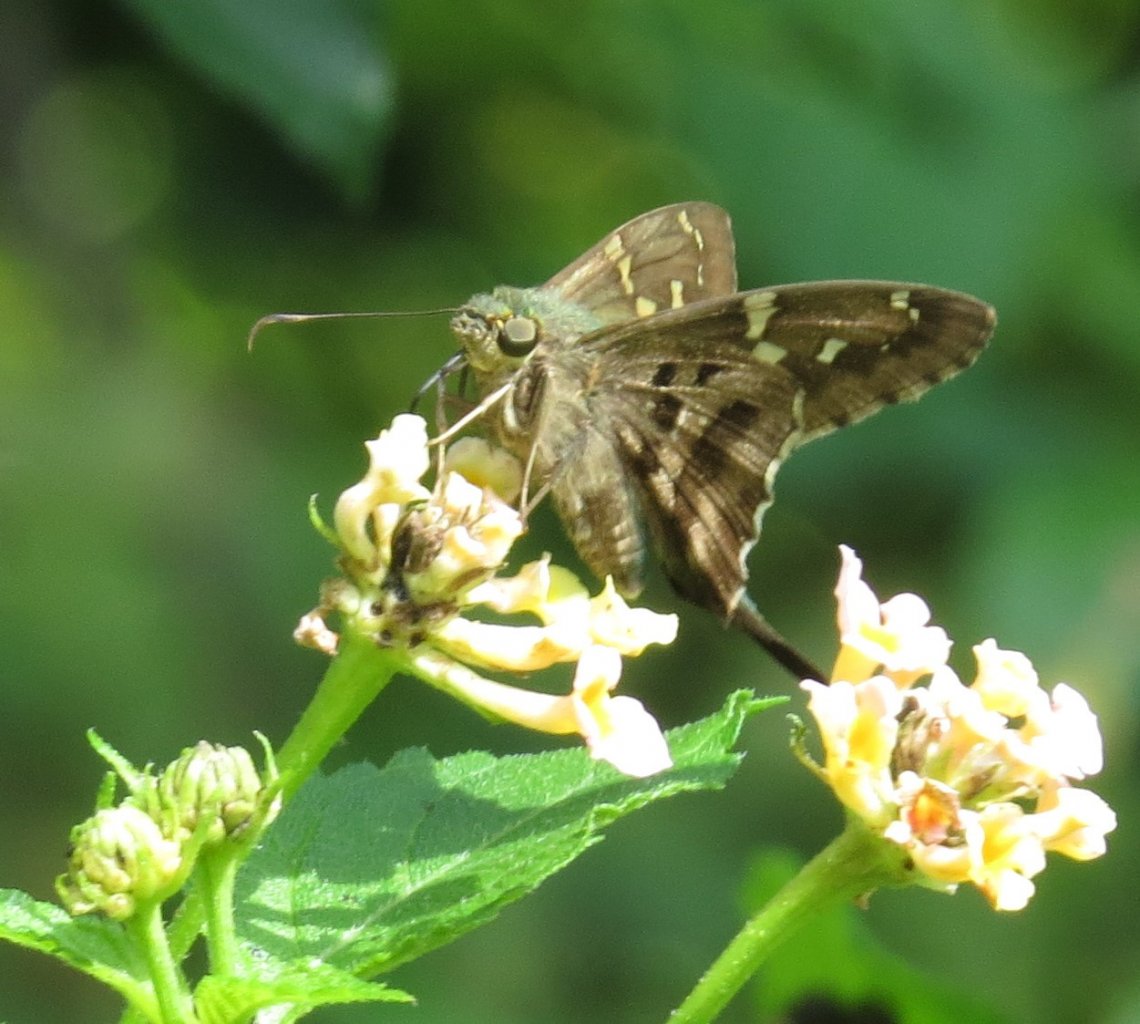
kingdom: Animalia
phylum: Arthropoda
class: Insecta
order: Lepidoptera
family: Hesperiidae
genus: Urbanus
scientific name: Urbanus proteus
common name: Long-tailed Skipper
